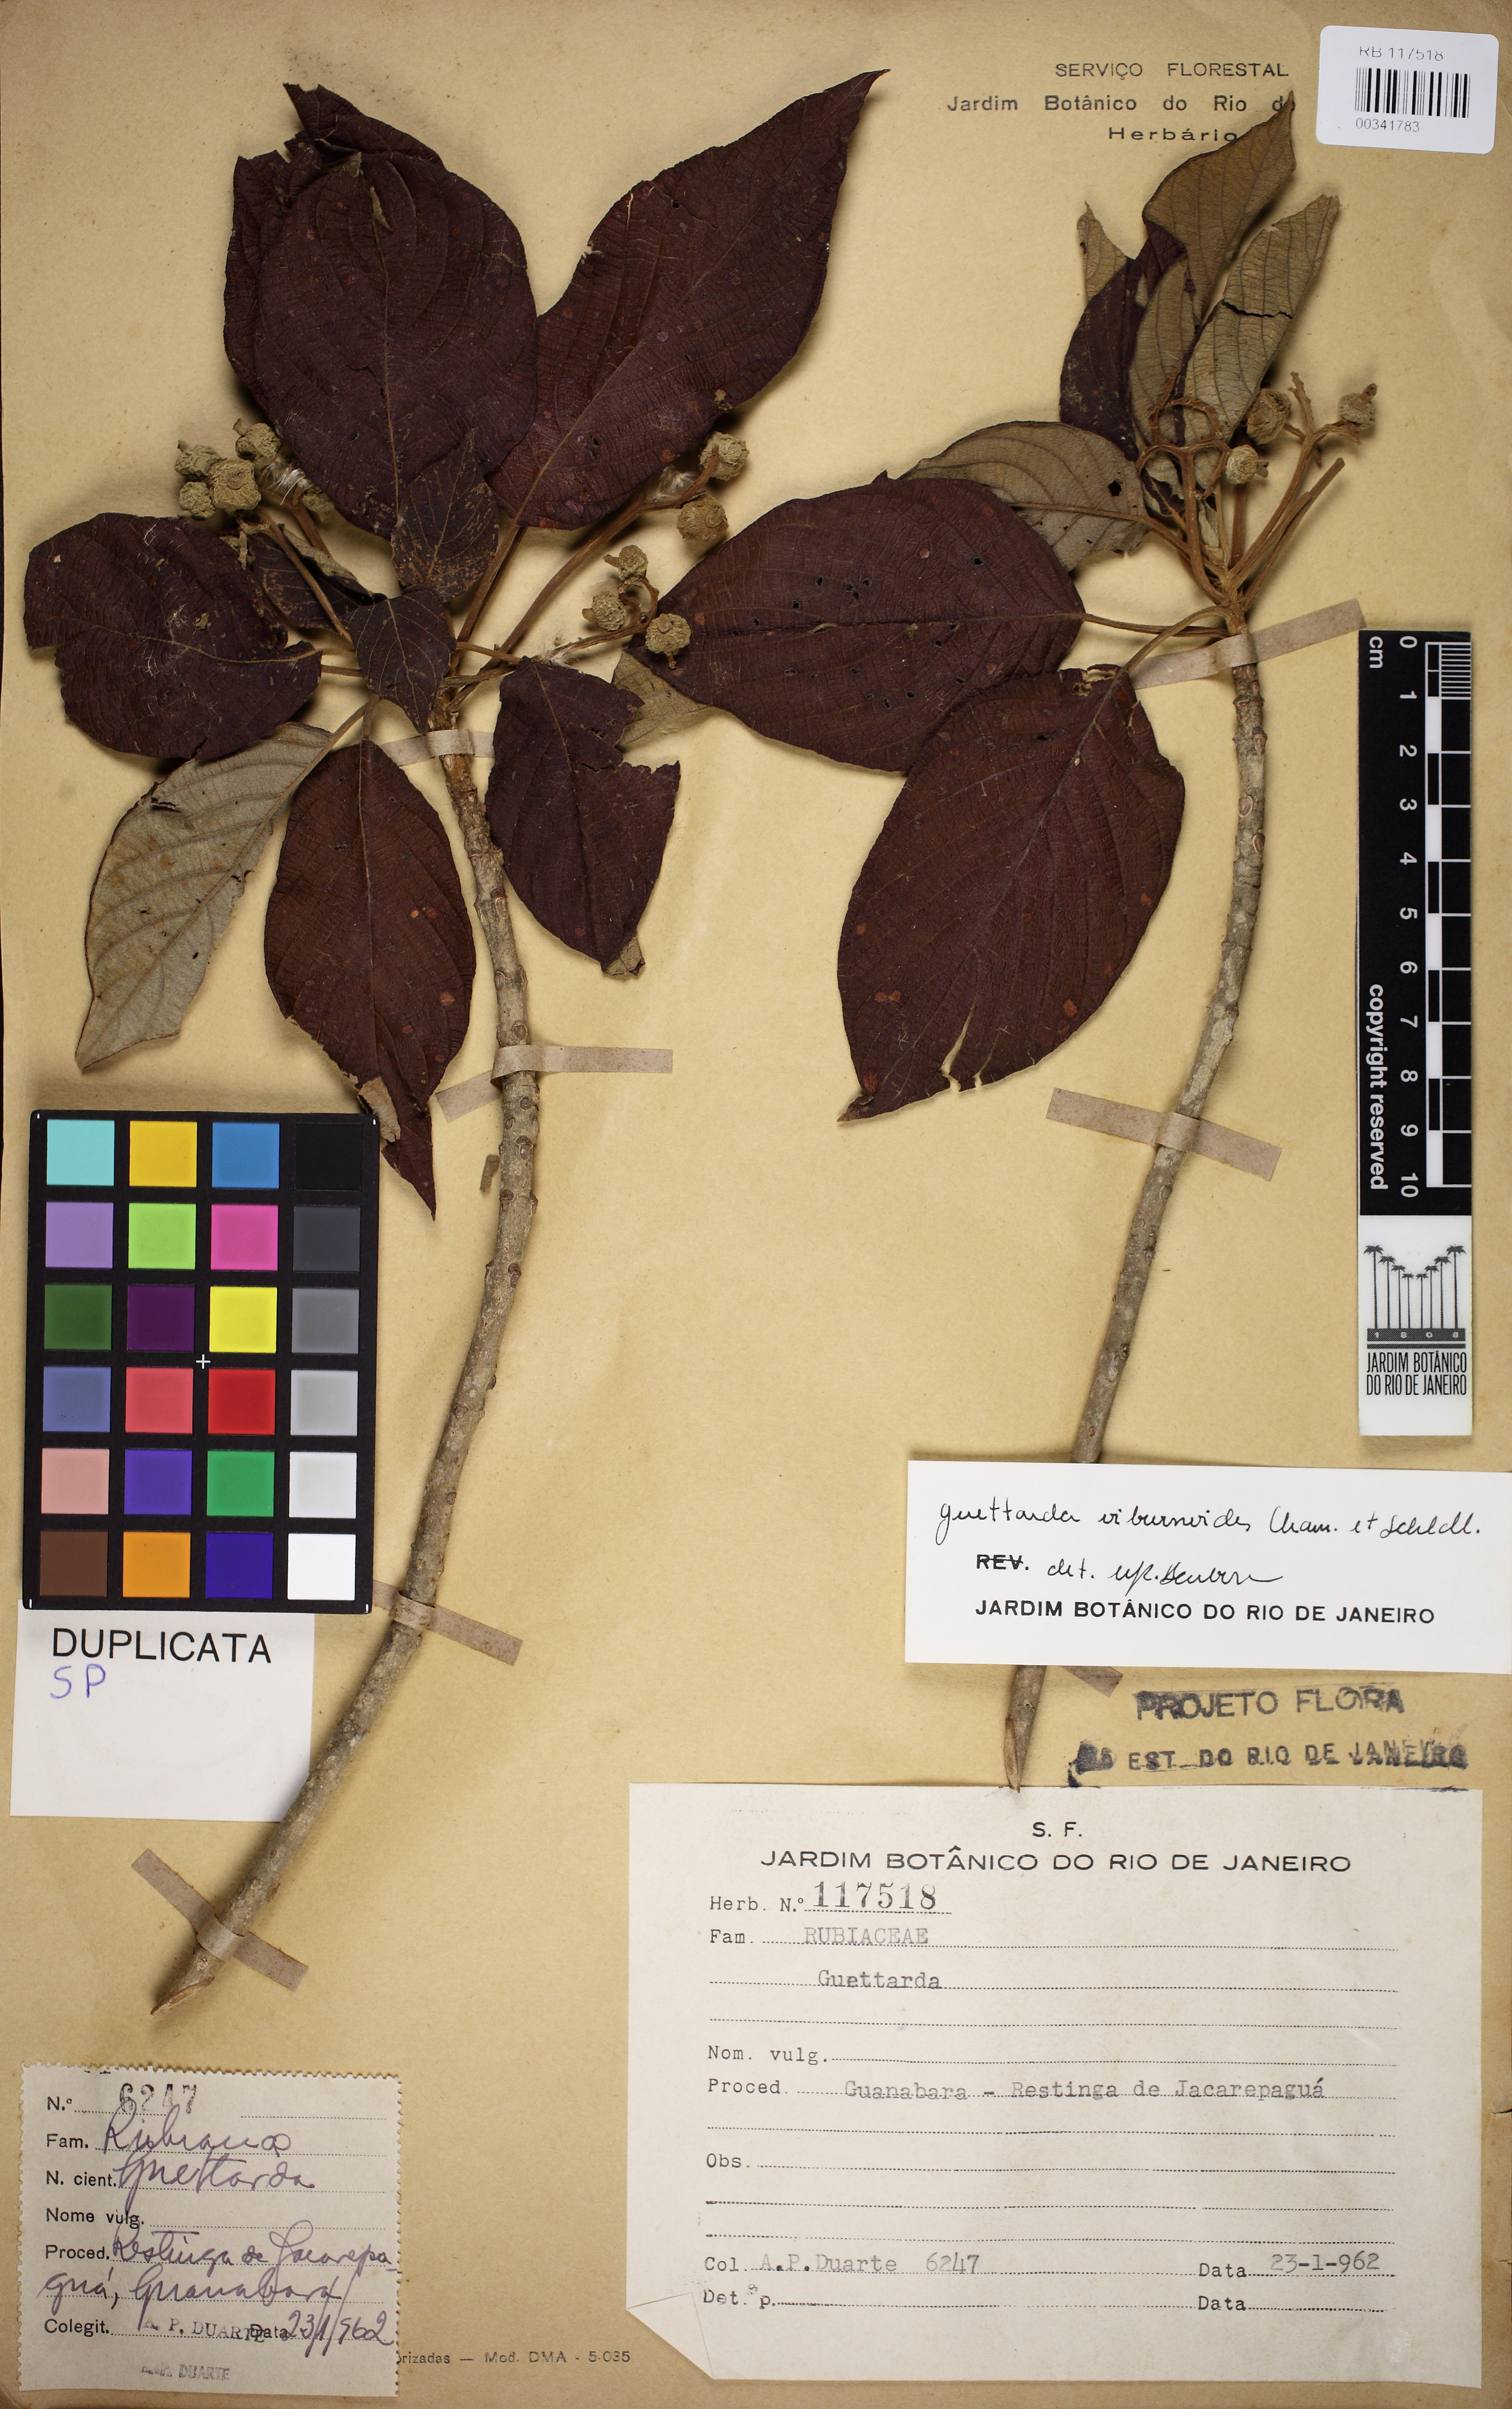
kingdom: Plantae
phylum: Tracheophyta
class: Magnoliopsida
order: Gentianales
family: Rubiaceae
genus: Guettarda
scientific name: Guettarda viburnoides
